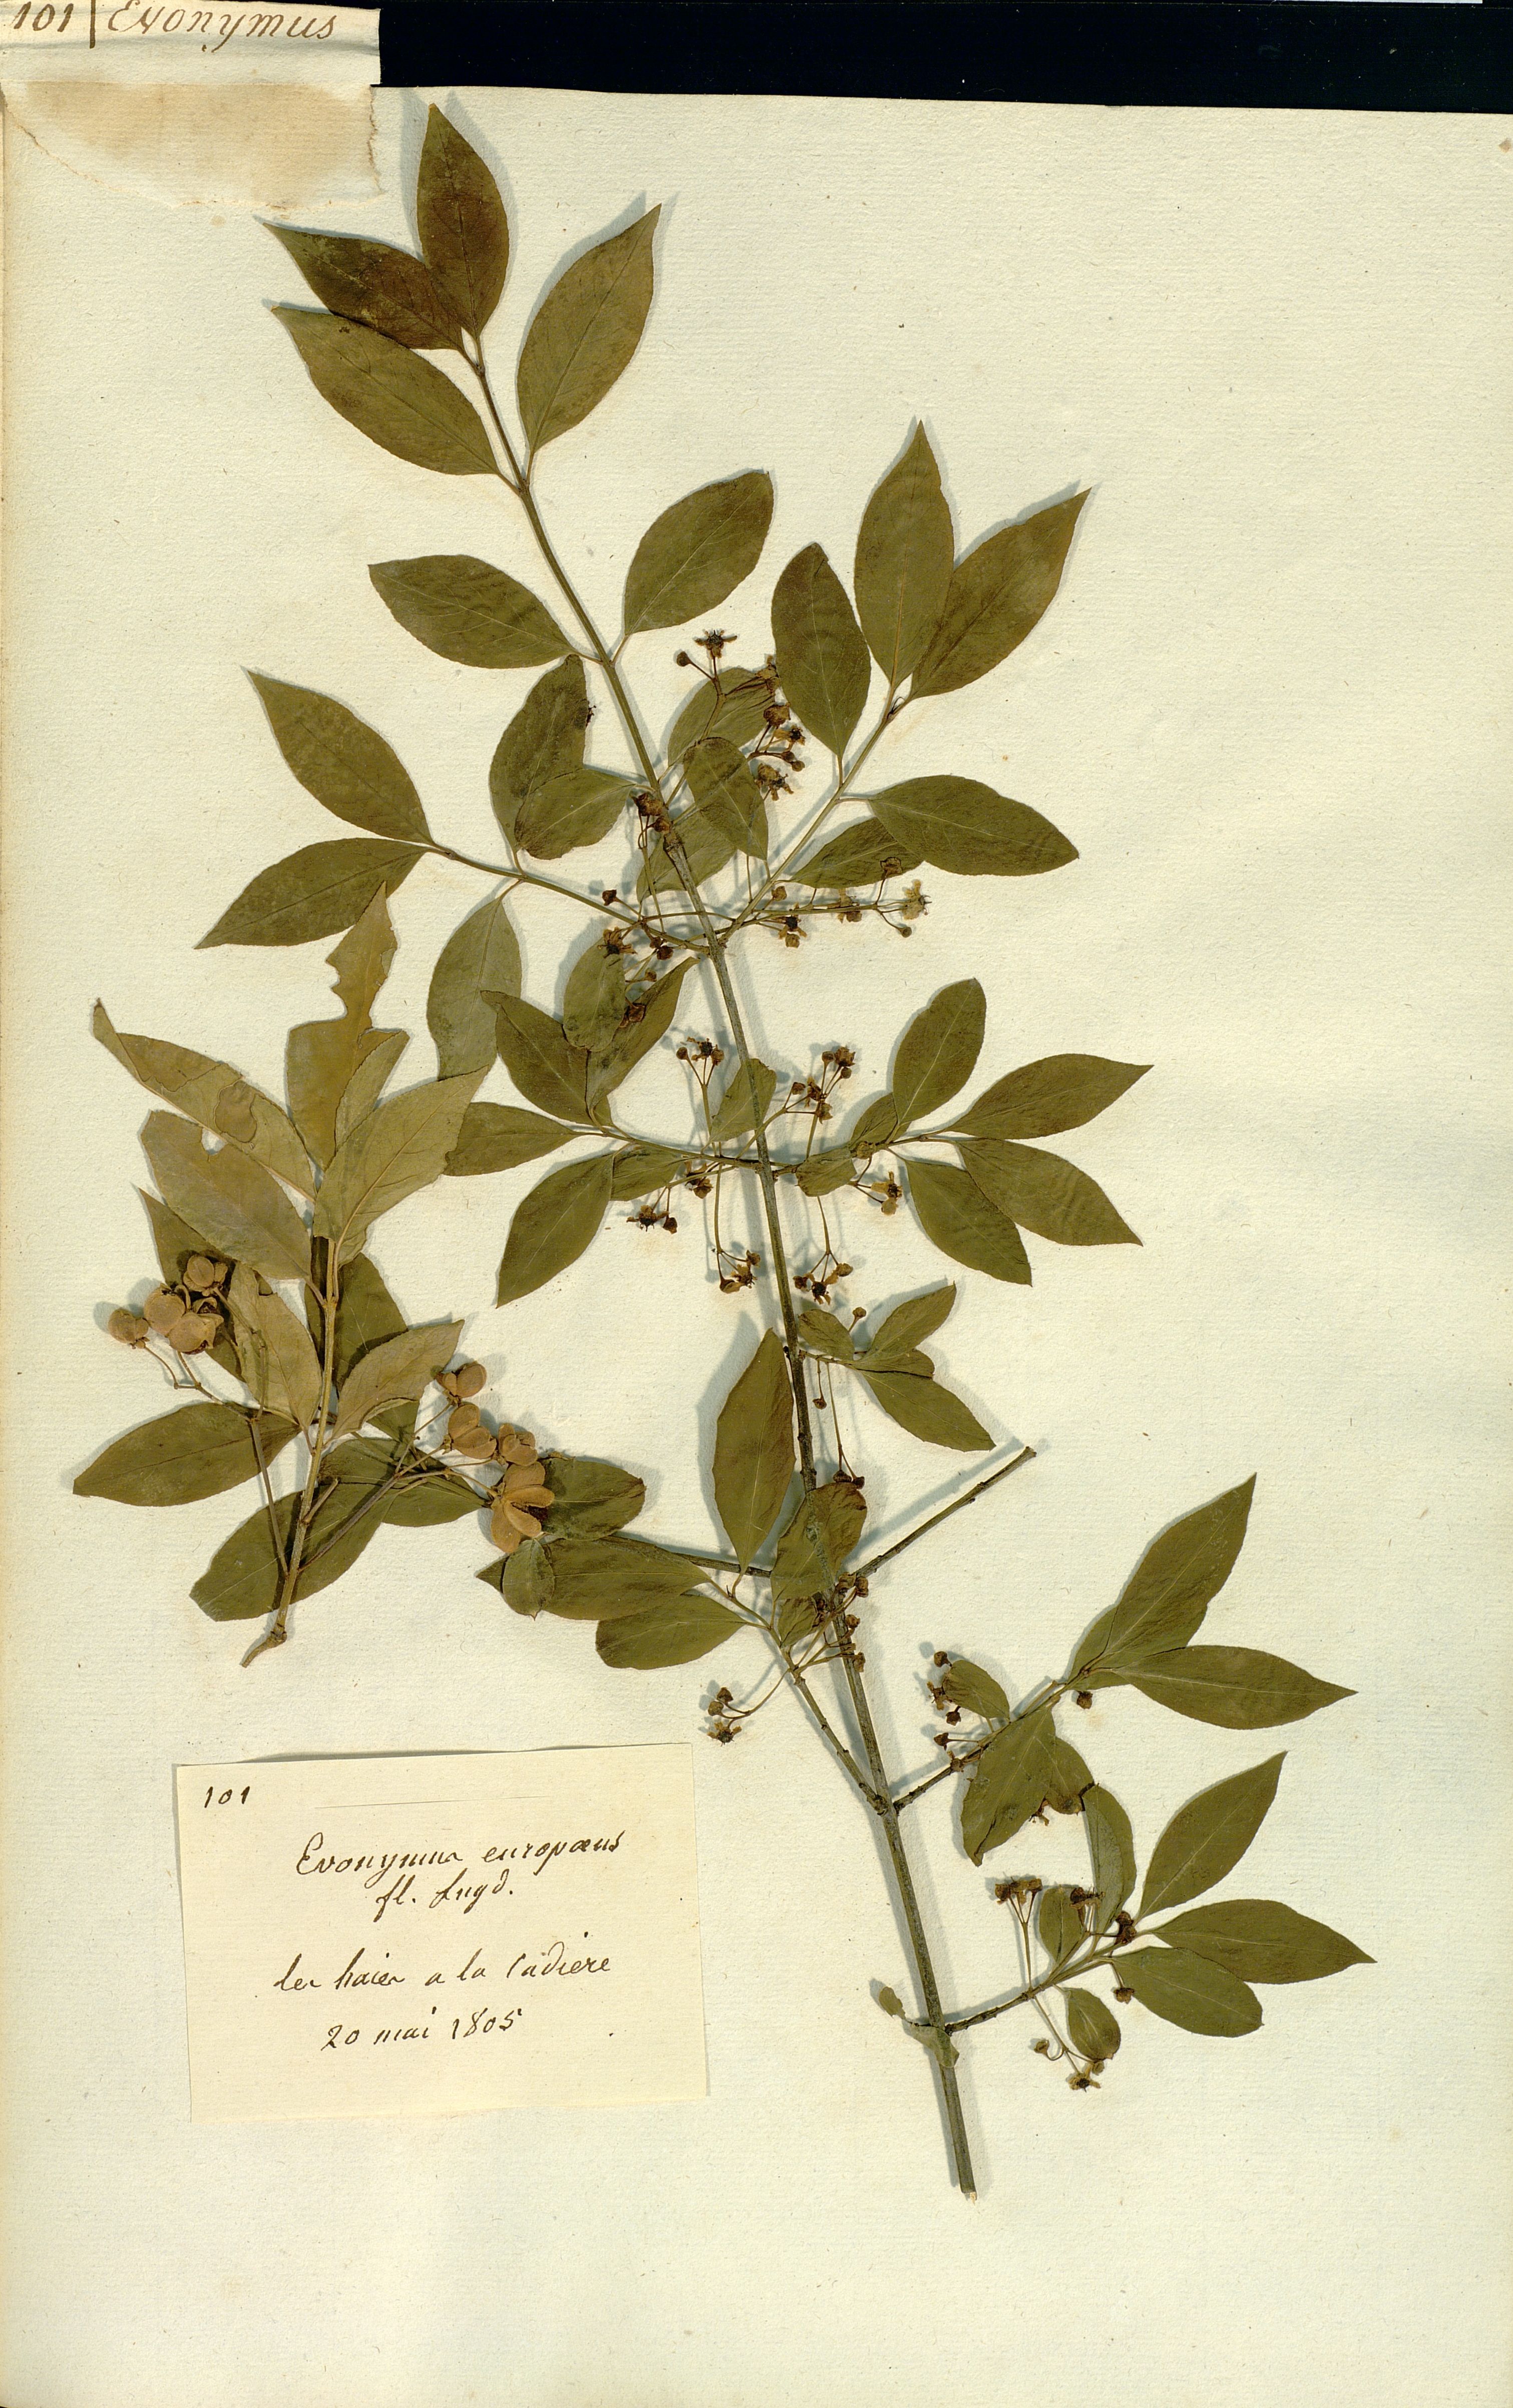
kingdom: Plantae
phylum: Tracheophyta
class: Magnoliopsida
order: Celastrales
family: Celastraceae
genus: Euonymus
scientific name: Euonymus europaeus
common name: Spindle
